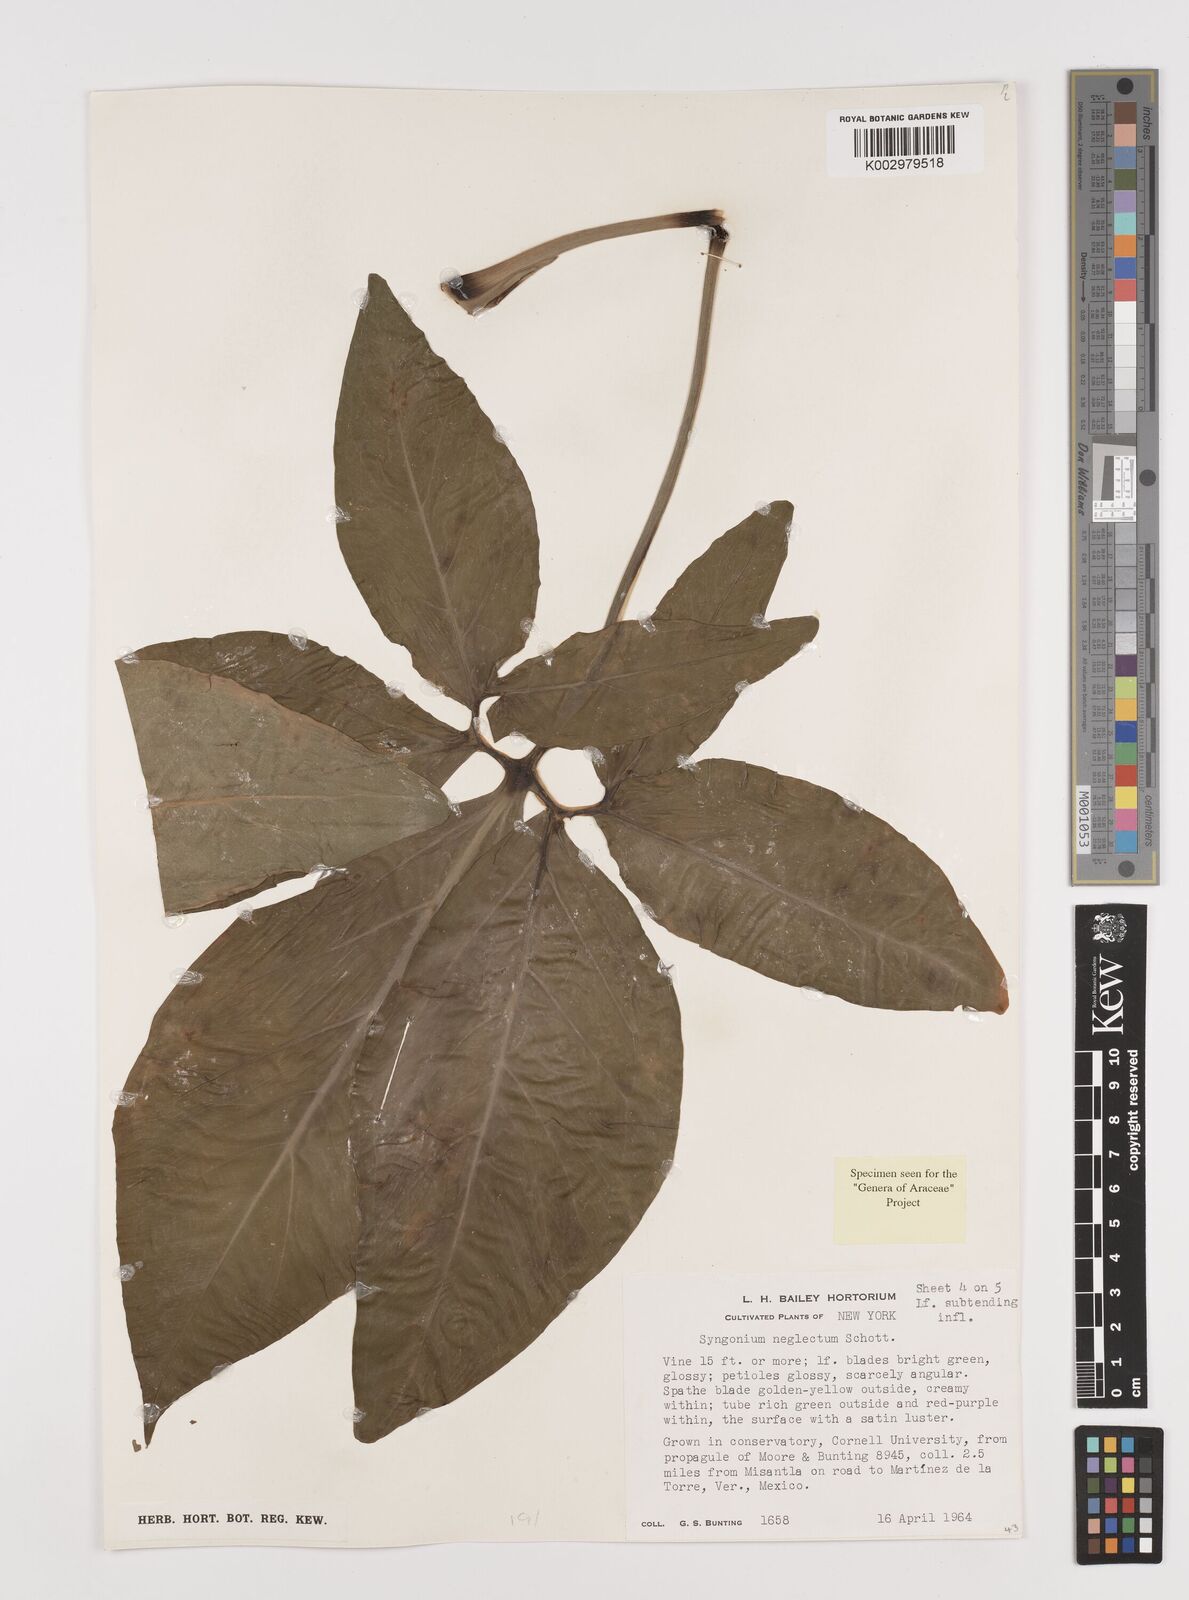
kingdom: Plantae
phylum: Tracheophyta
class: Liliopsida
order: Alismatales
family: Araceae
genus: Syngonium
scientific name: Syngonium neglectum
